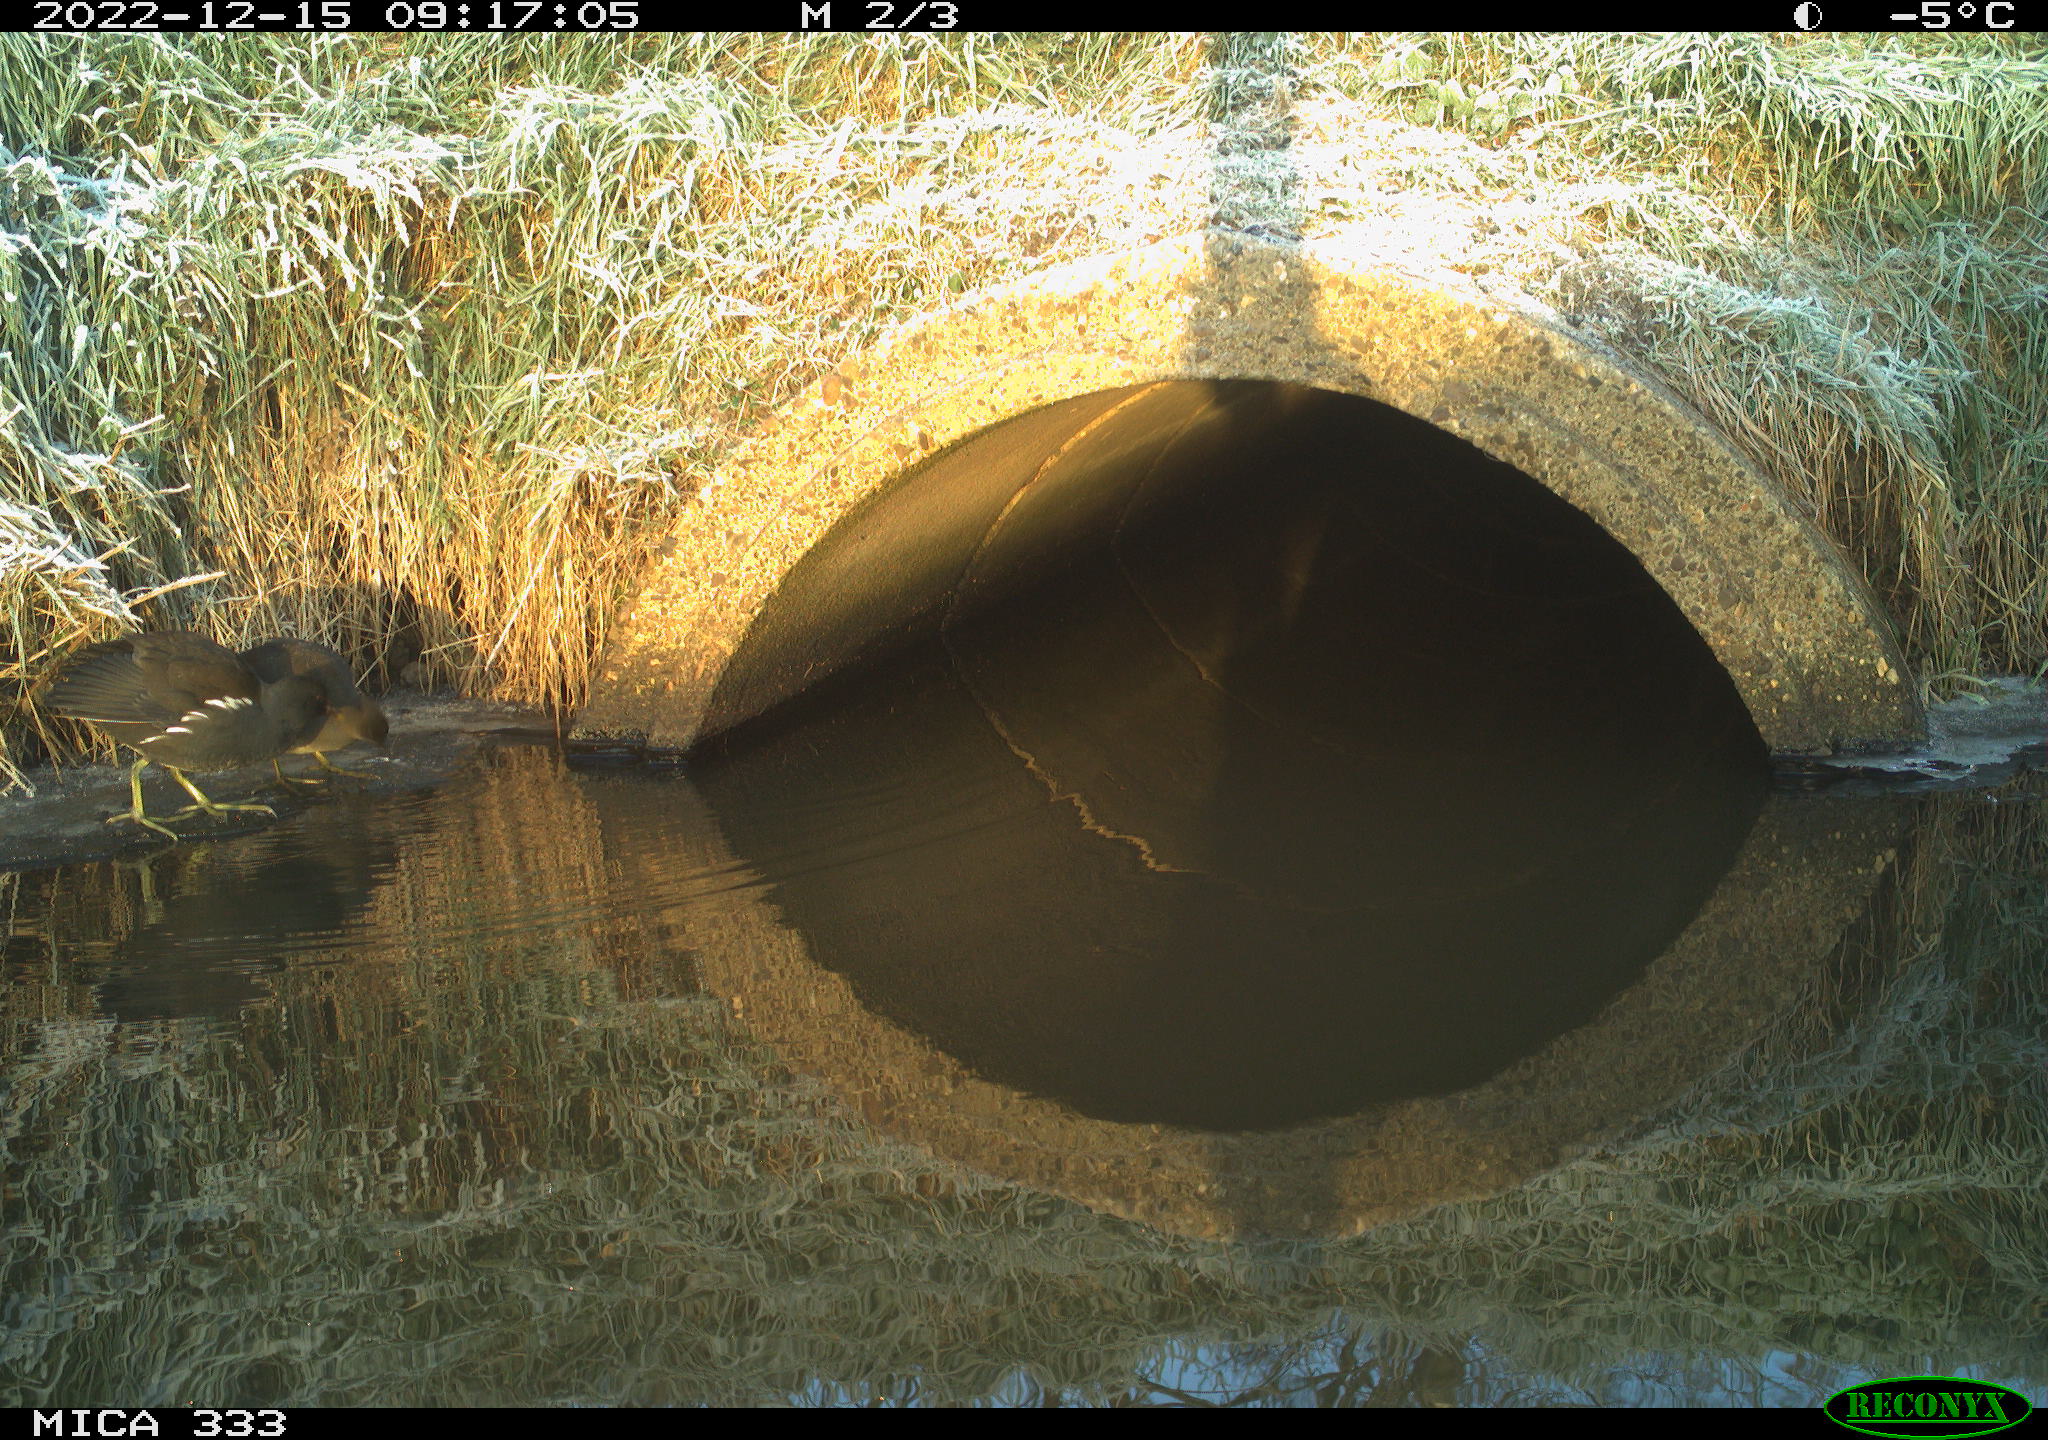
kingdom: Animalia
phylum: Chordata
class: Aves
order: Gruiformes
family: Rallidae
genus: Gallinula
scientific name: Gallinula chloropus
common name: Common moorhen
